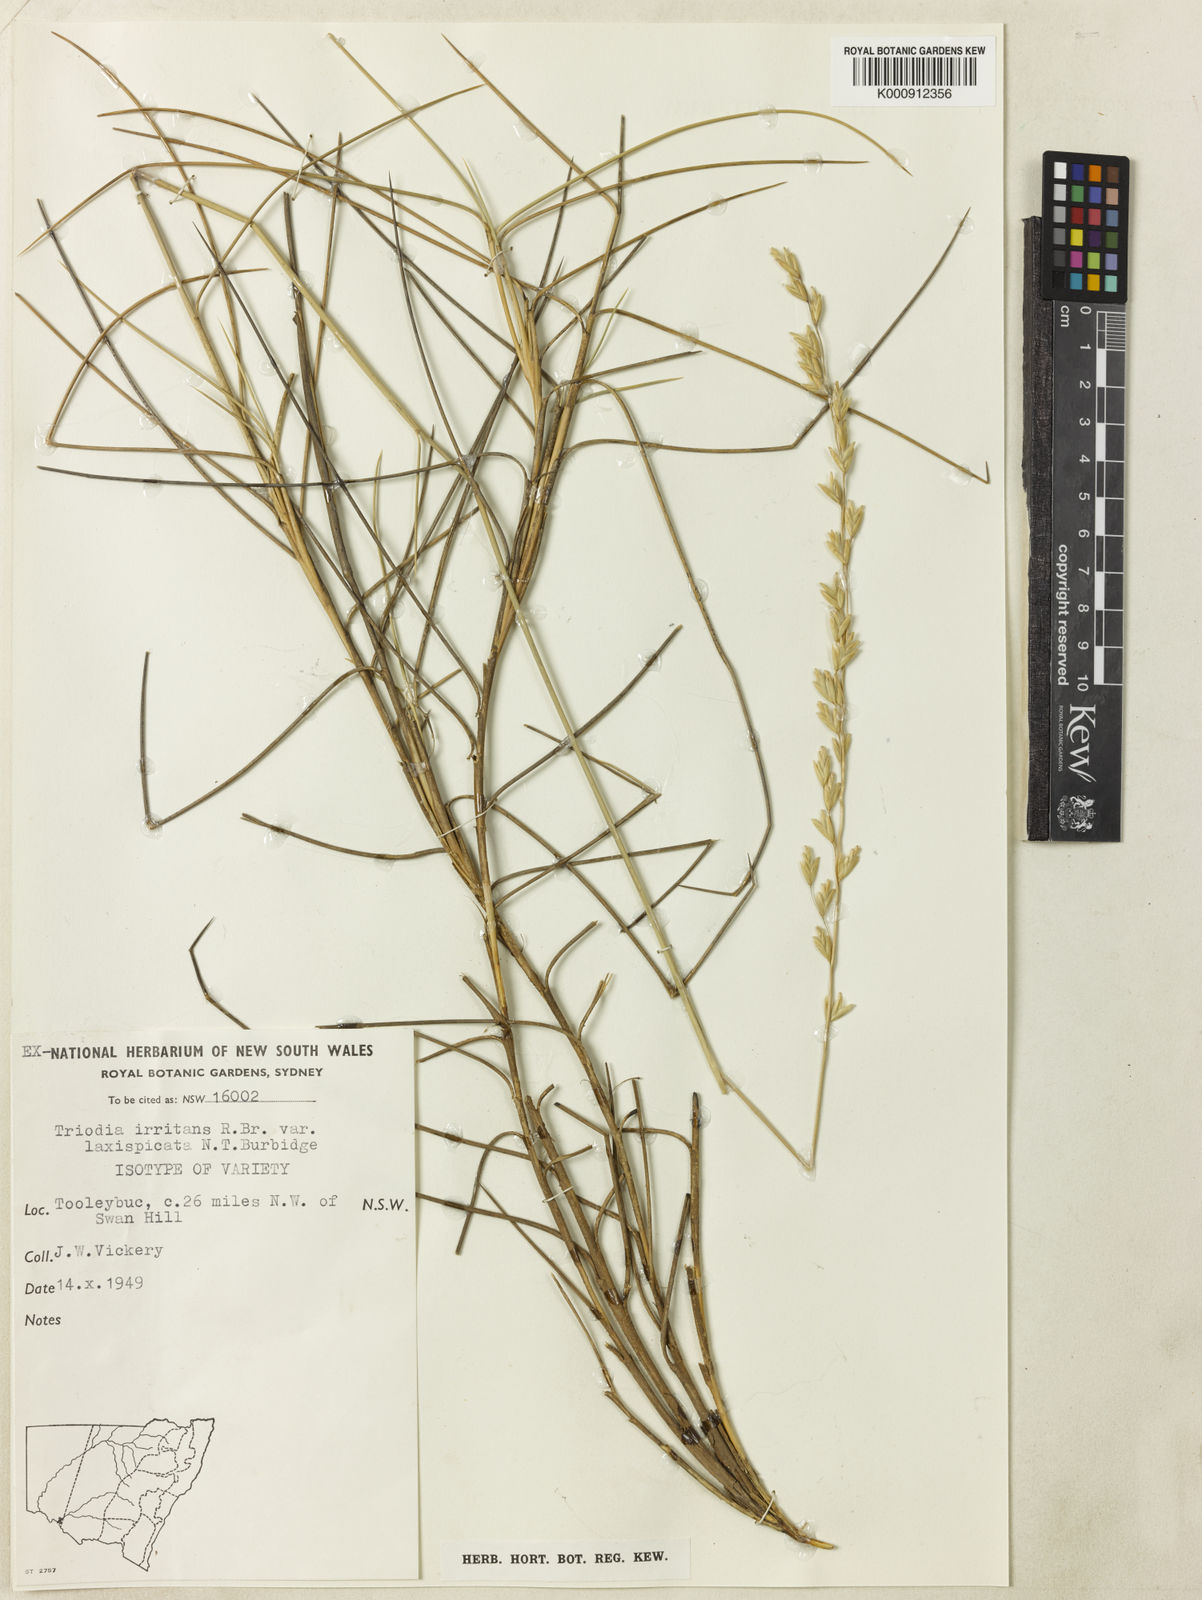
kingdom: Plantae
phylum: Tracheophyta
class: Liliopsida
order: Poales
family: Poaceae
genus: Triodia
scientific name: Triodia scariosa
